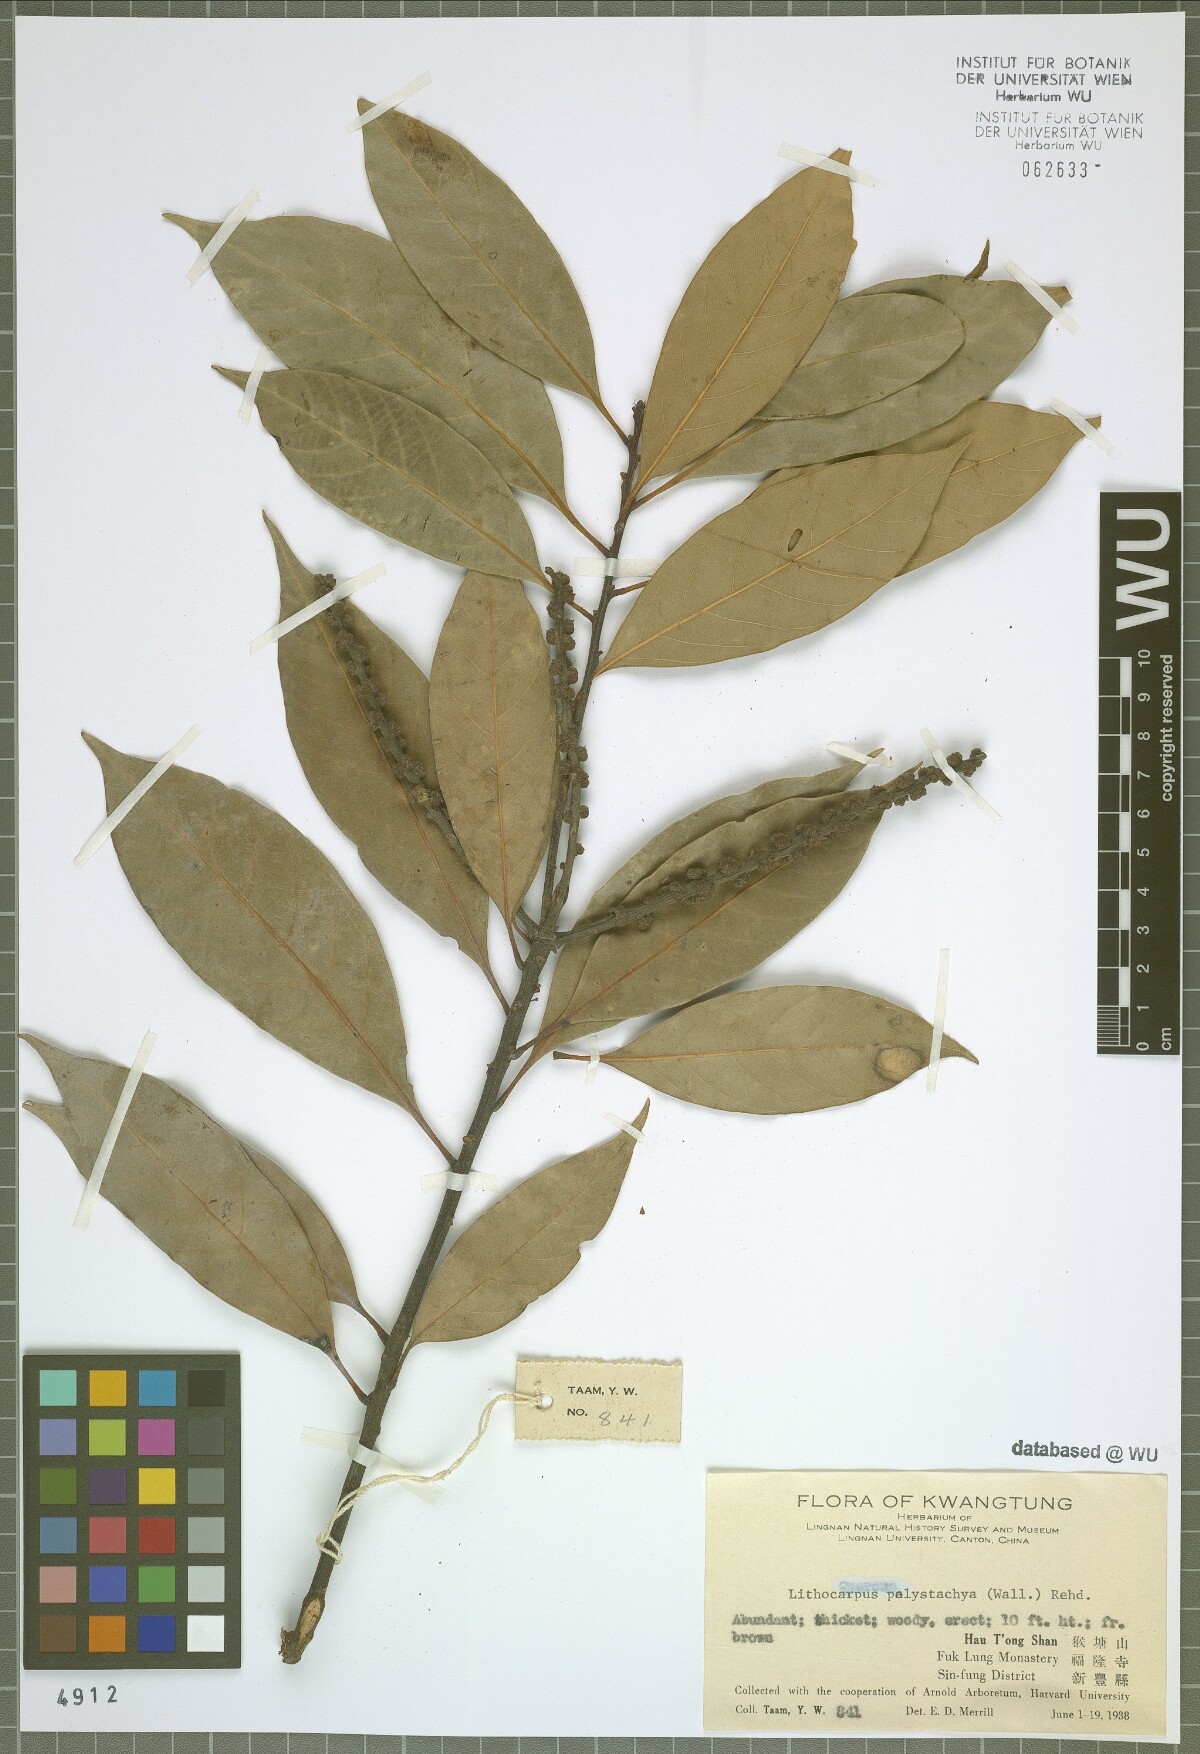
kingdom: Plantae
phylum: Tracheophyta
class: Magnoliopsida
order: Fagales
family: Fagaceae
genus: Lithocarpus
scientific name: Lithocarpus polystachyus
